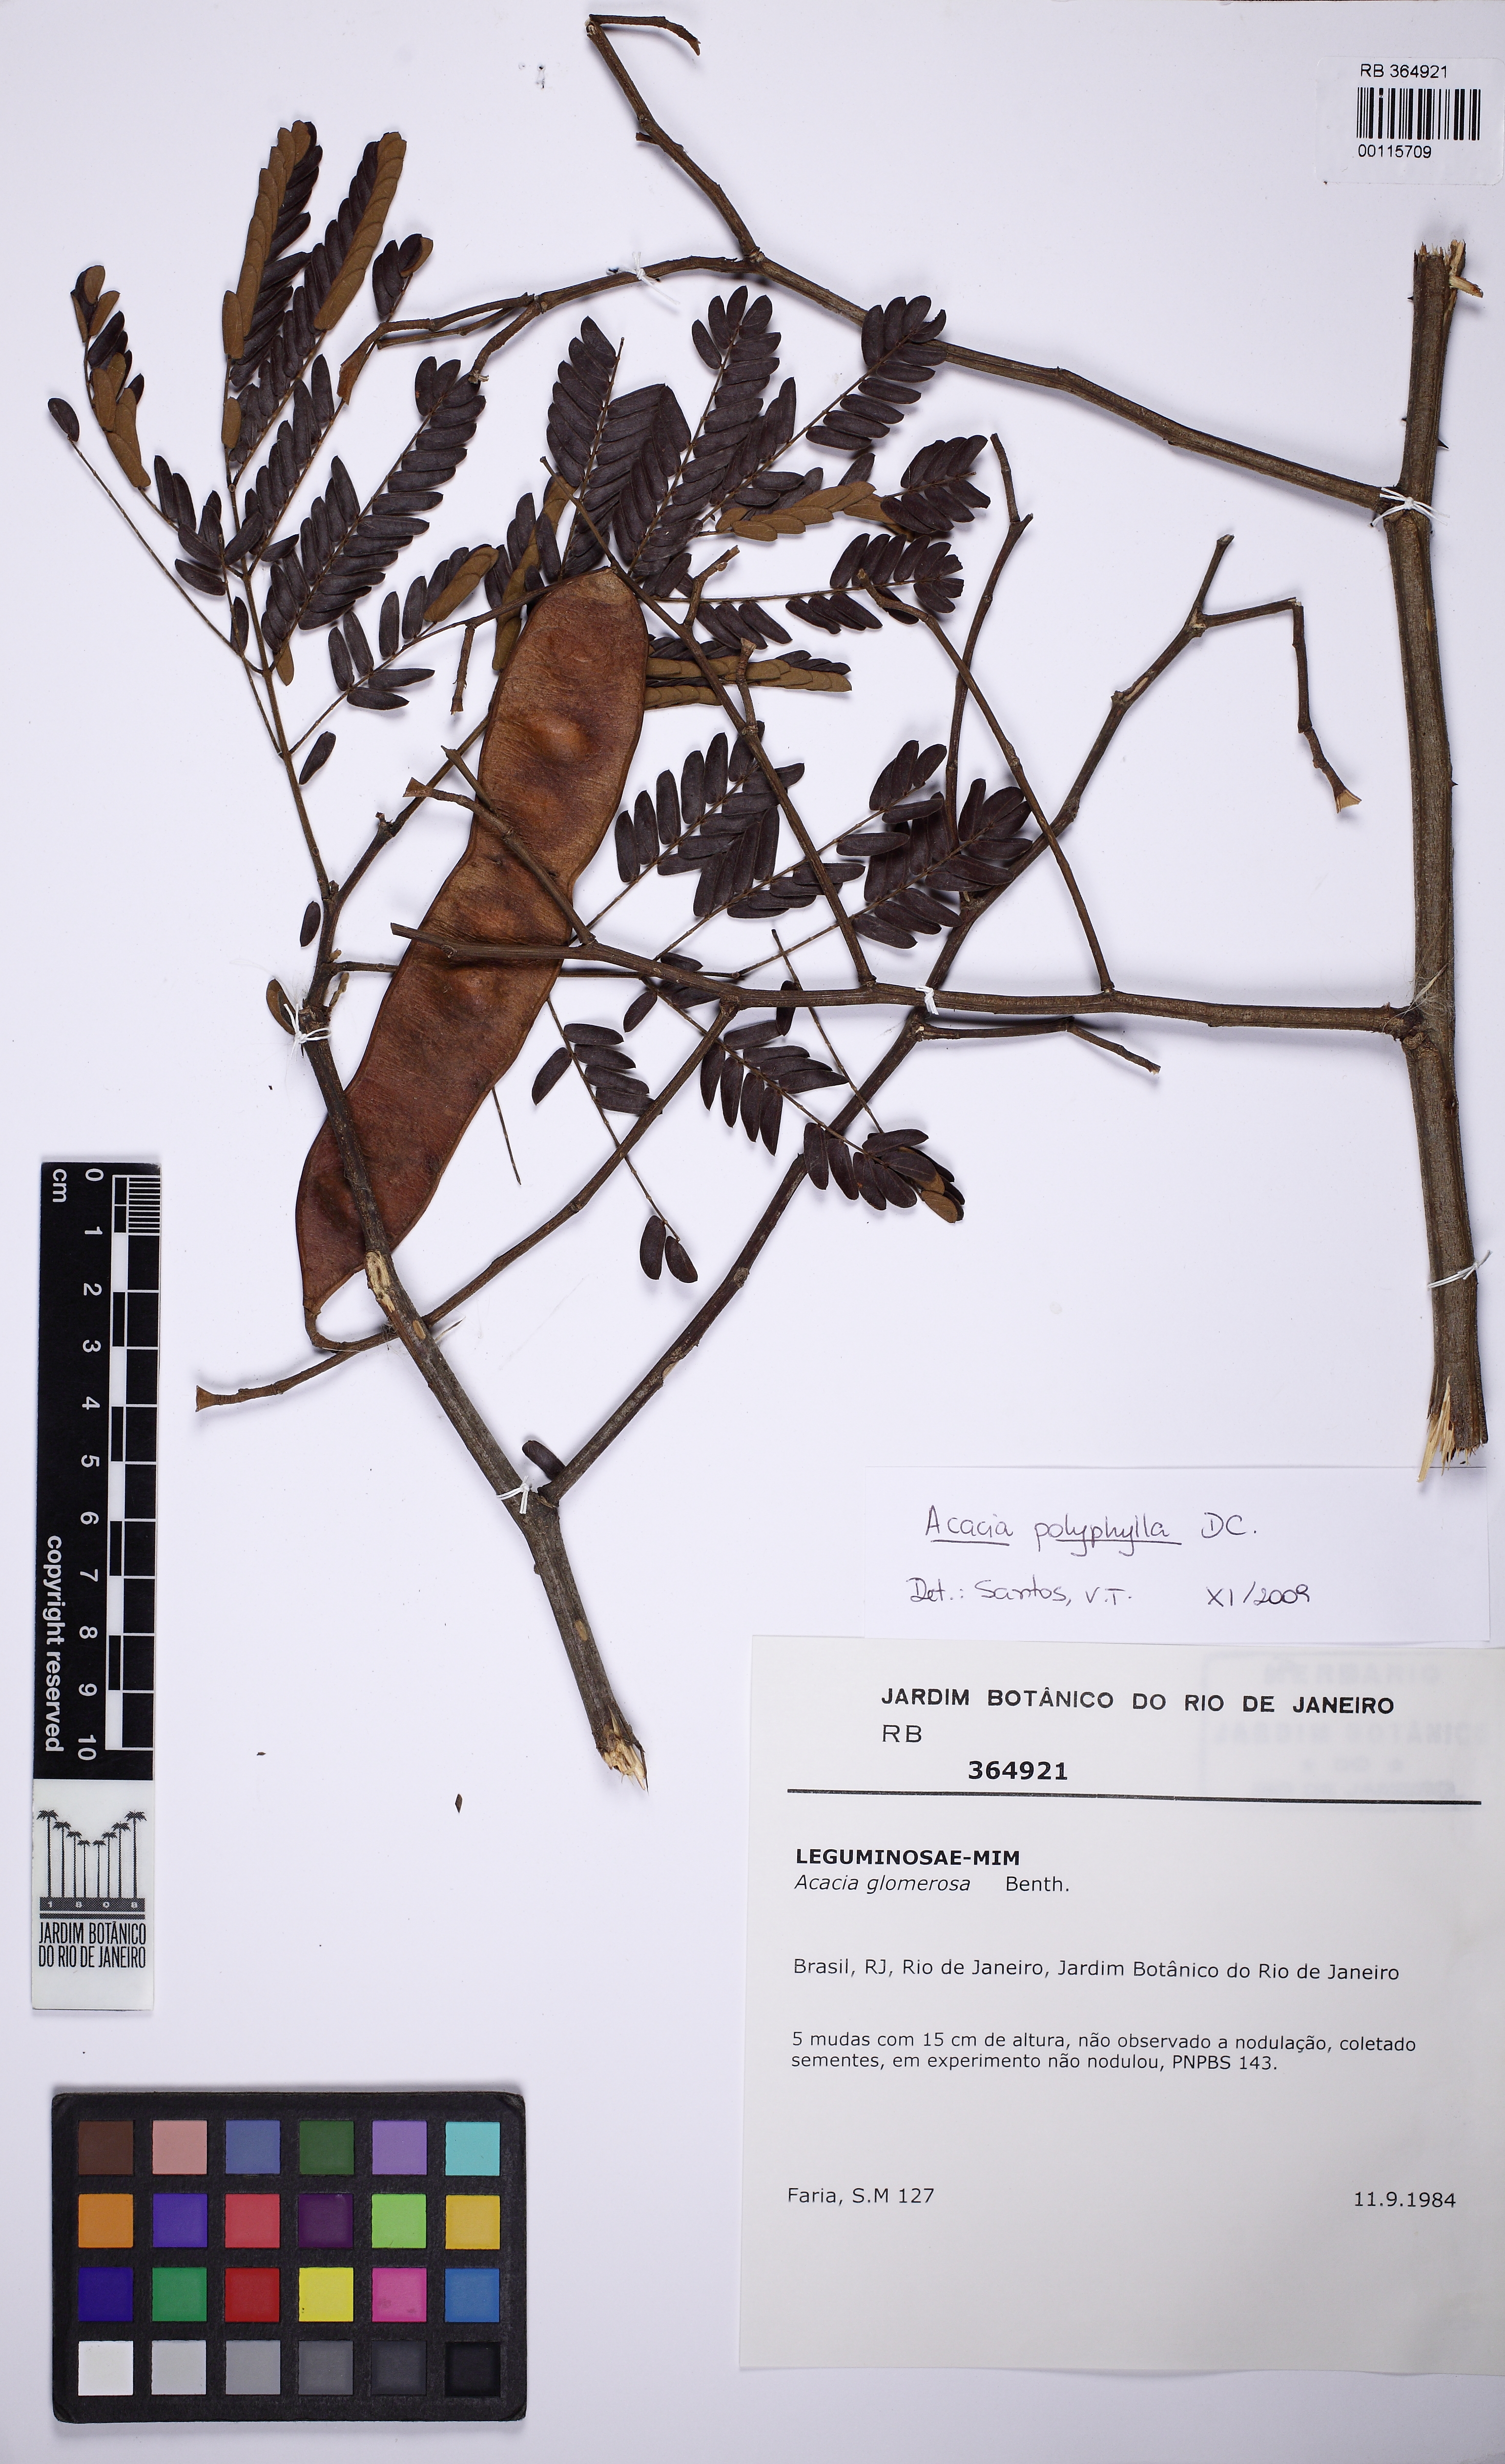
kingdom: Plantae
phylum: Tracheophyta
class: Magnoliopsida
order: Fabales
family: Fabaceae
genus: Senegalia
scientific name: Senegalia polyphylla
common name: White-tamarind
